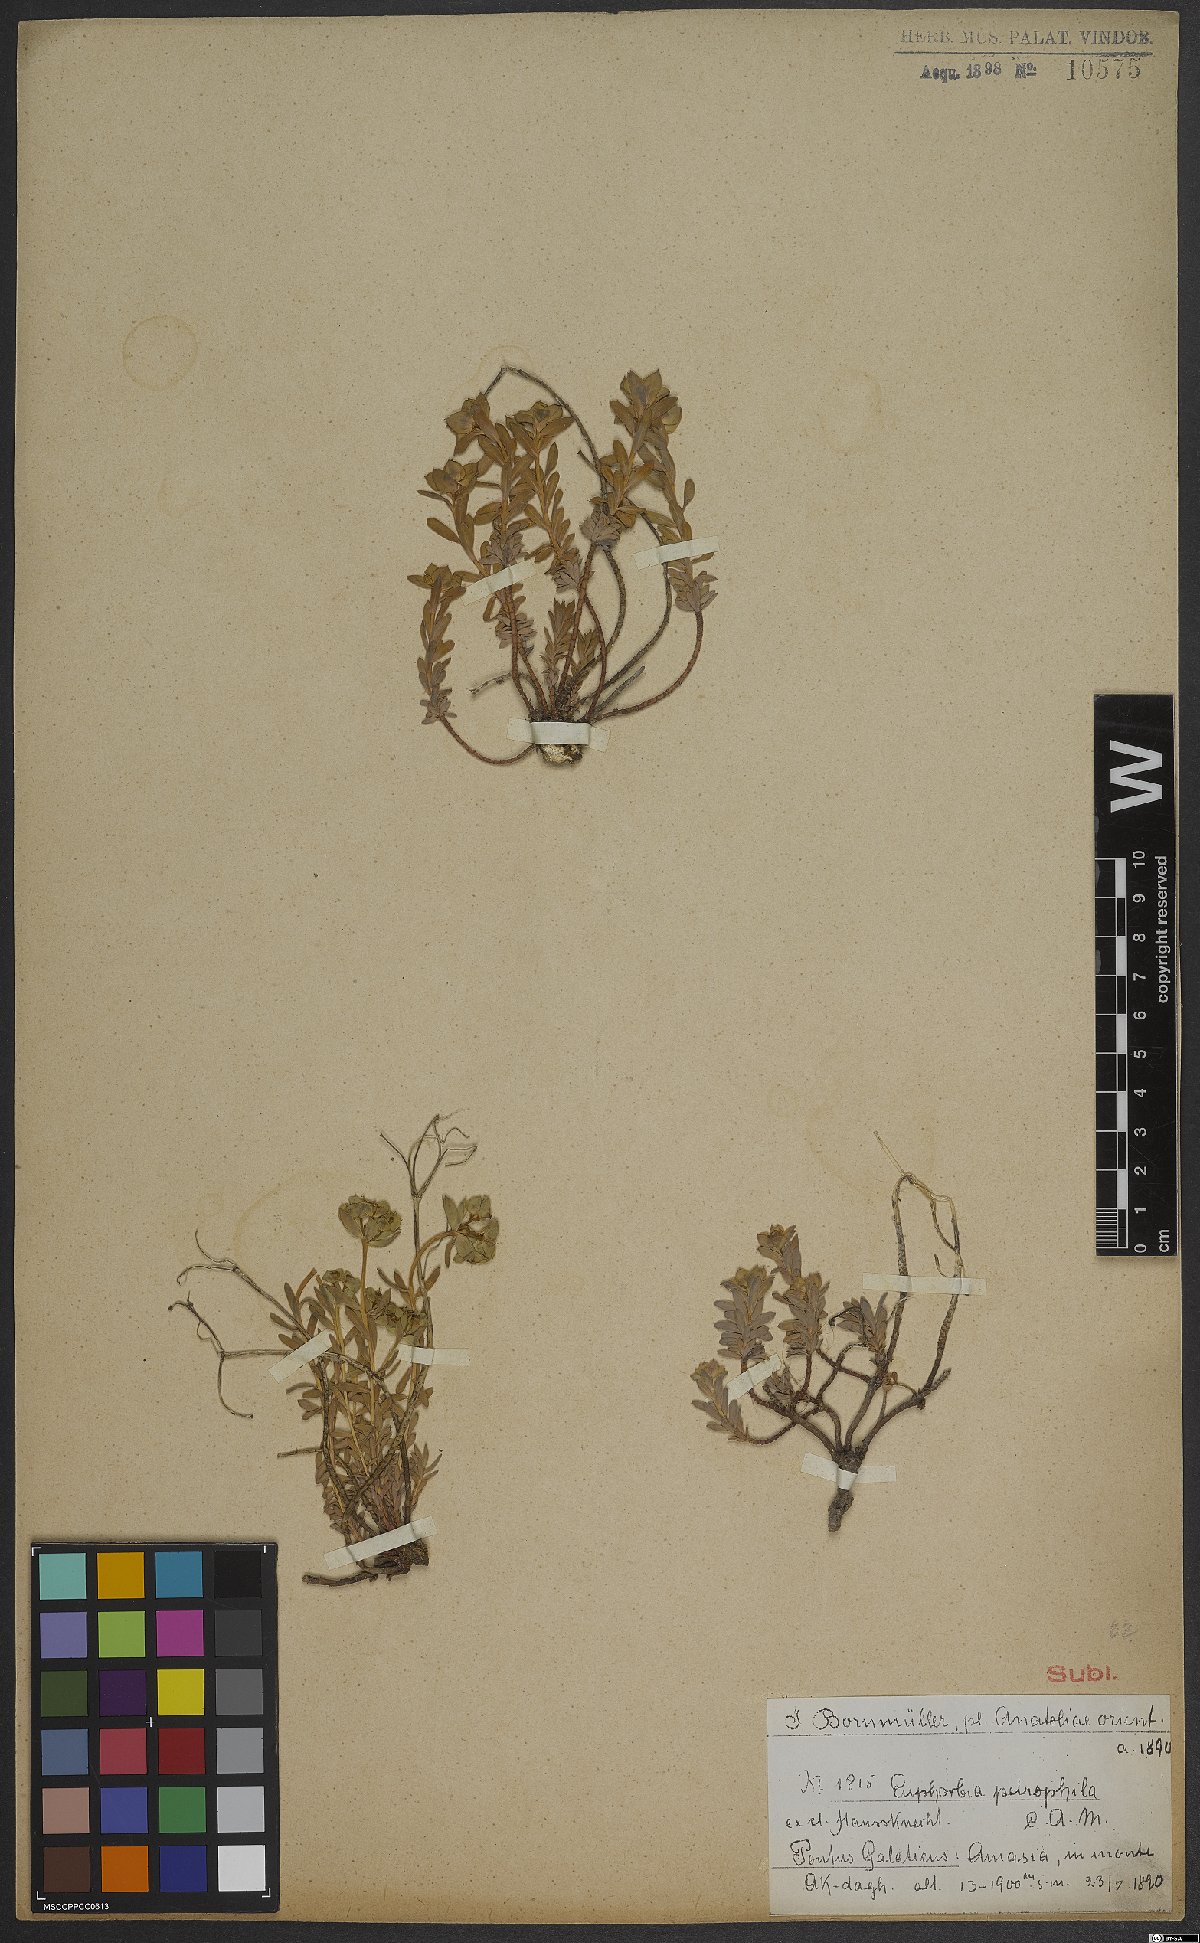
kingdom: Plantae
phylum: Tracheophyta
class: Magnoliopsida
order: Malpighiales
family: Euphorbiaceae
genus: Euphorbia
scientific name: Euphorbia petrophila
